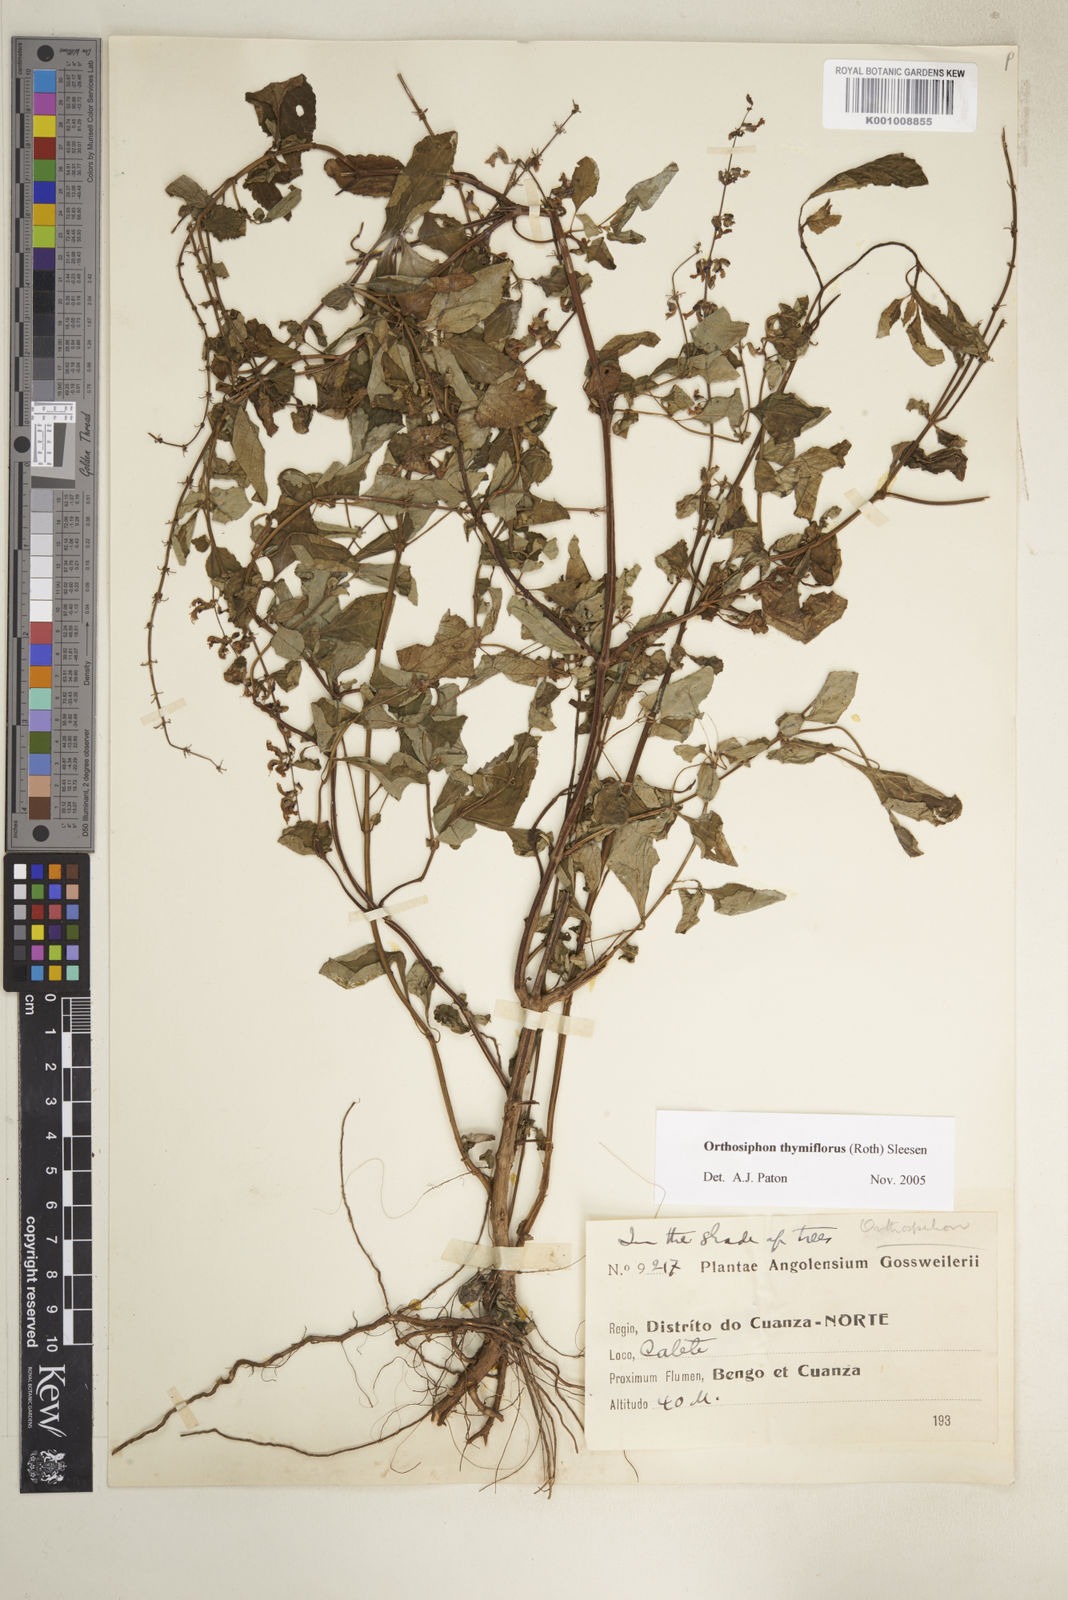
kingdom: Plantae
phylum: Tracheophyta
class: Magnoliopsida
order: Lamiales
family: Lamiaceae
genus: Orthosiphon
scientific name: Orthosiphon thymiflorus
